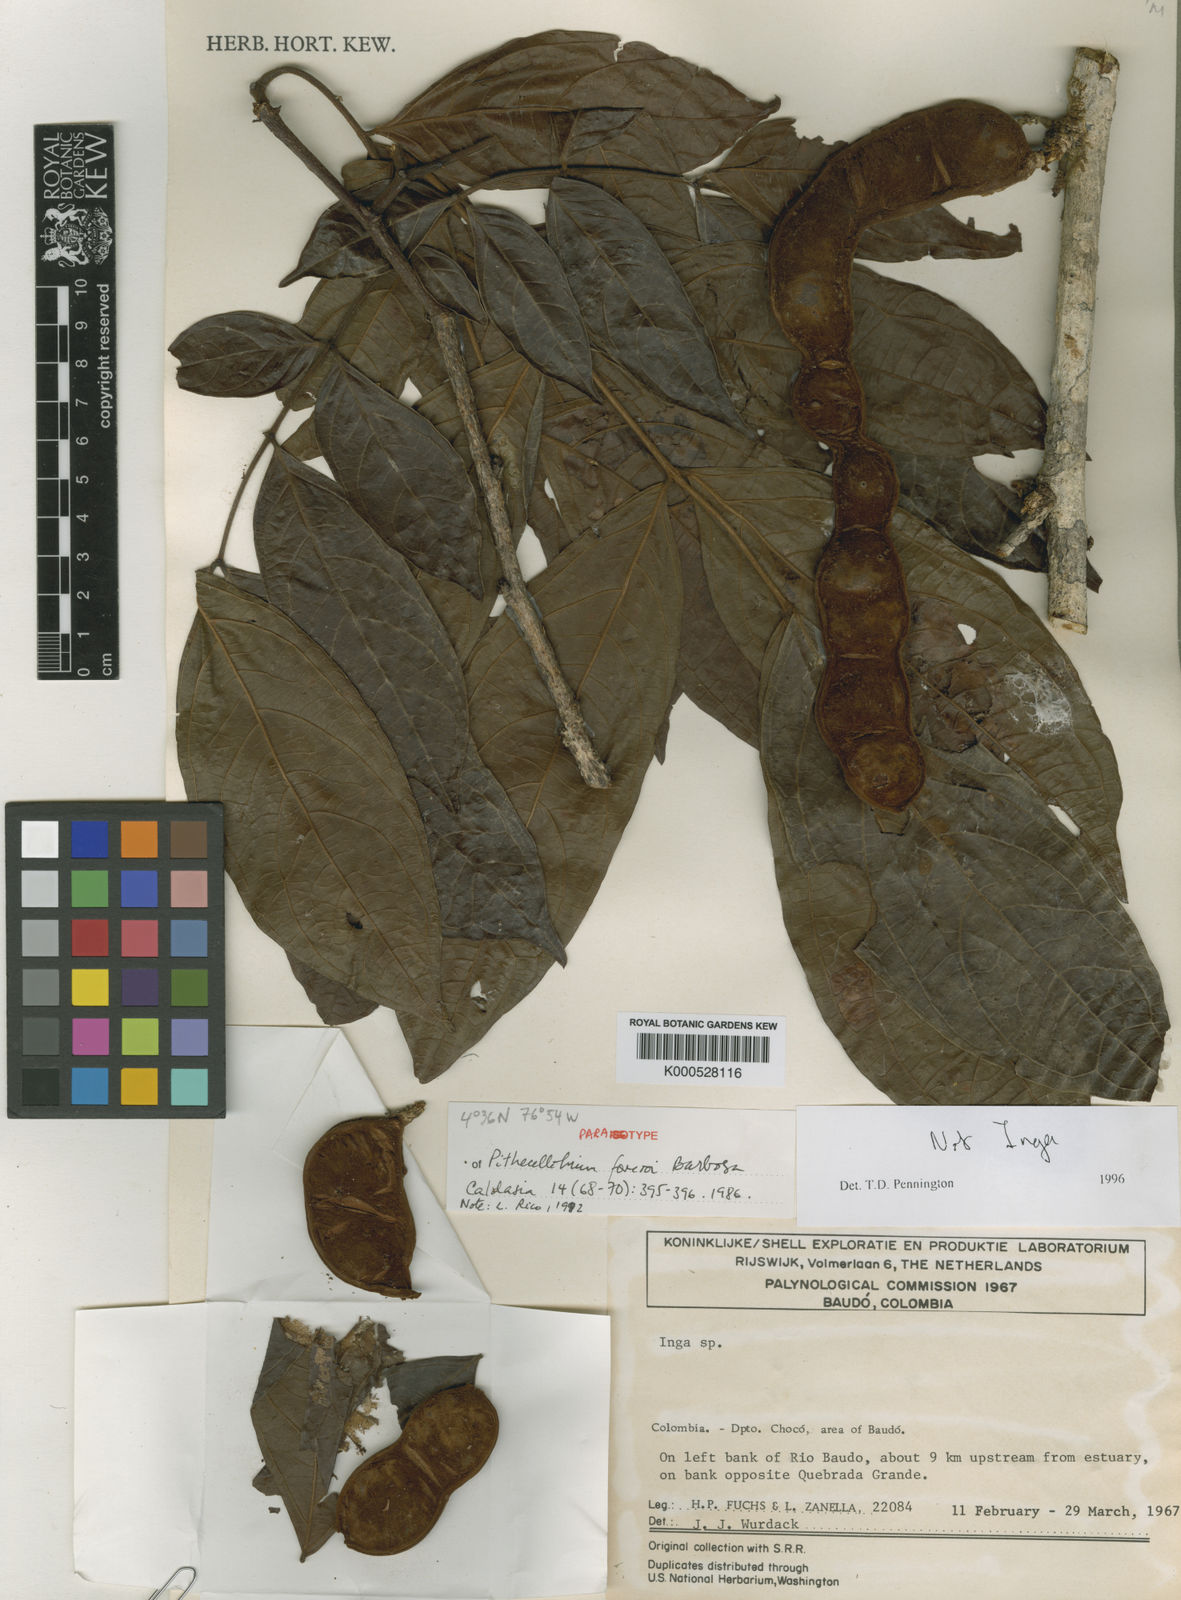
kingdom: Plantae
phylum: Tracheophyta
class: Magnoliopsida
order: Fabales
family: Fabaceae
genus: Zygia
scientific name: Zygia inaequalis
